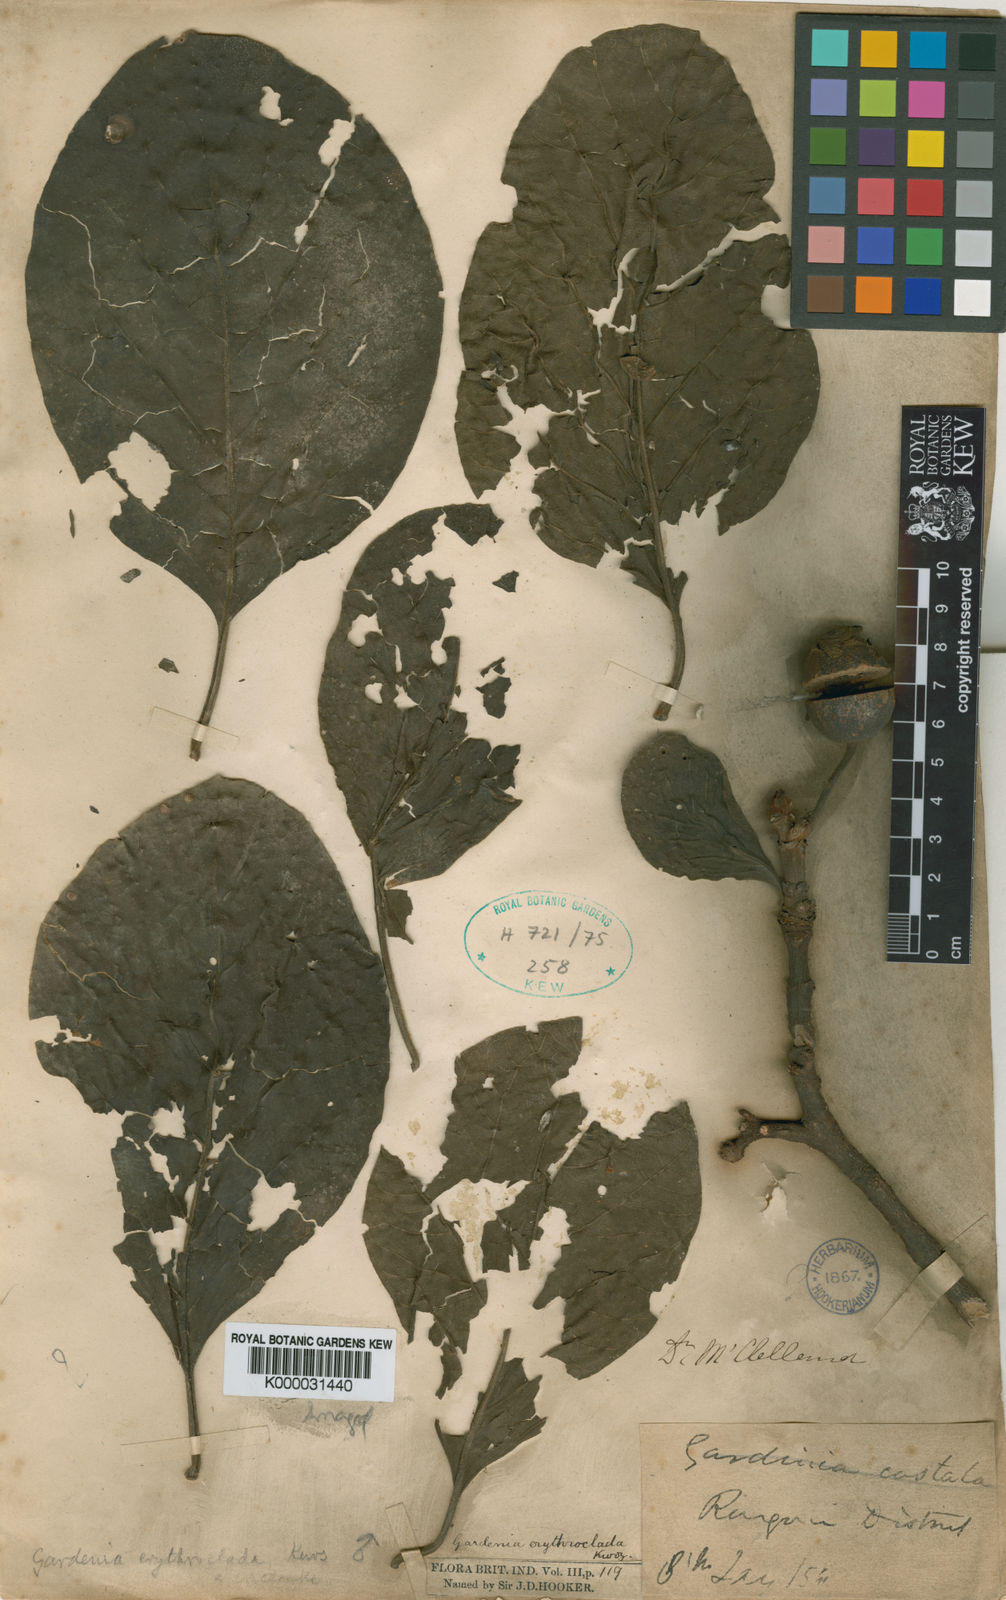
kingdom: Plantae
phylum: Tracheophyta
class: Magnoliopsida
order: Gentianales
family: Rubiaceae
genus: Dioecrescis
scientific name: Dioecrescis erythroclada
